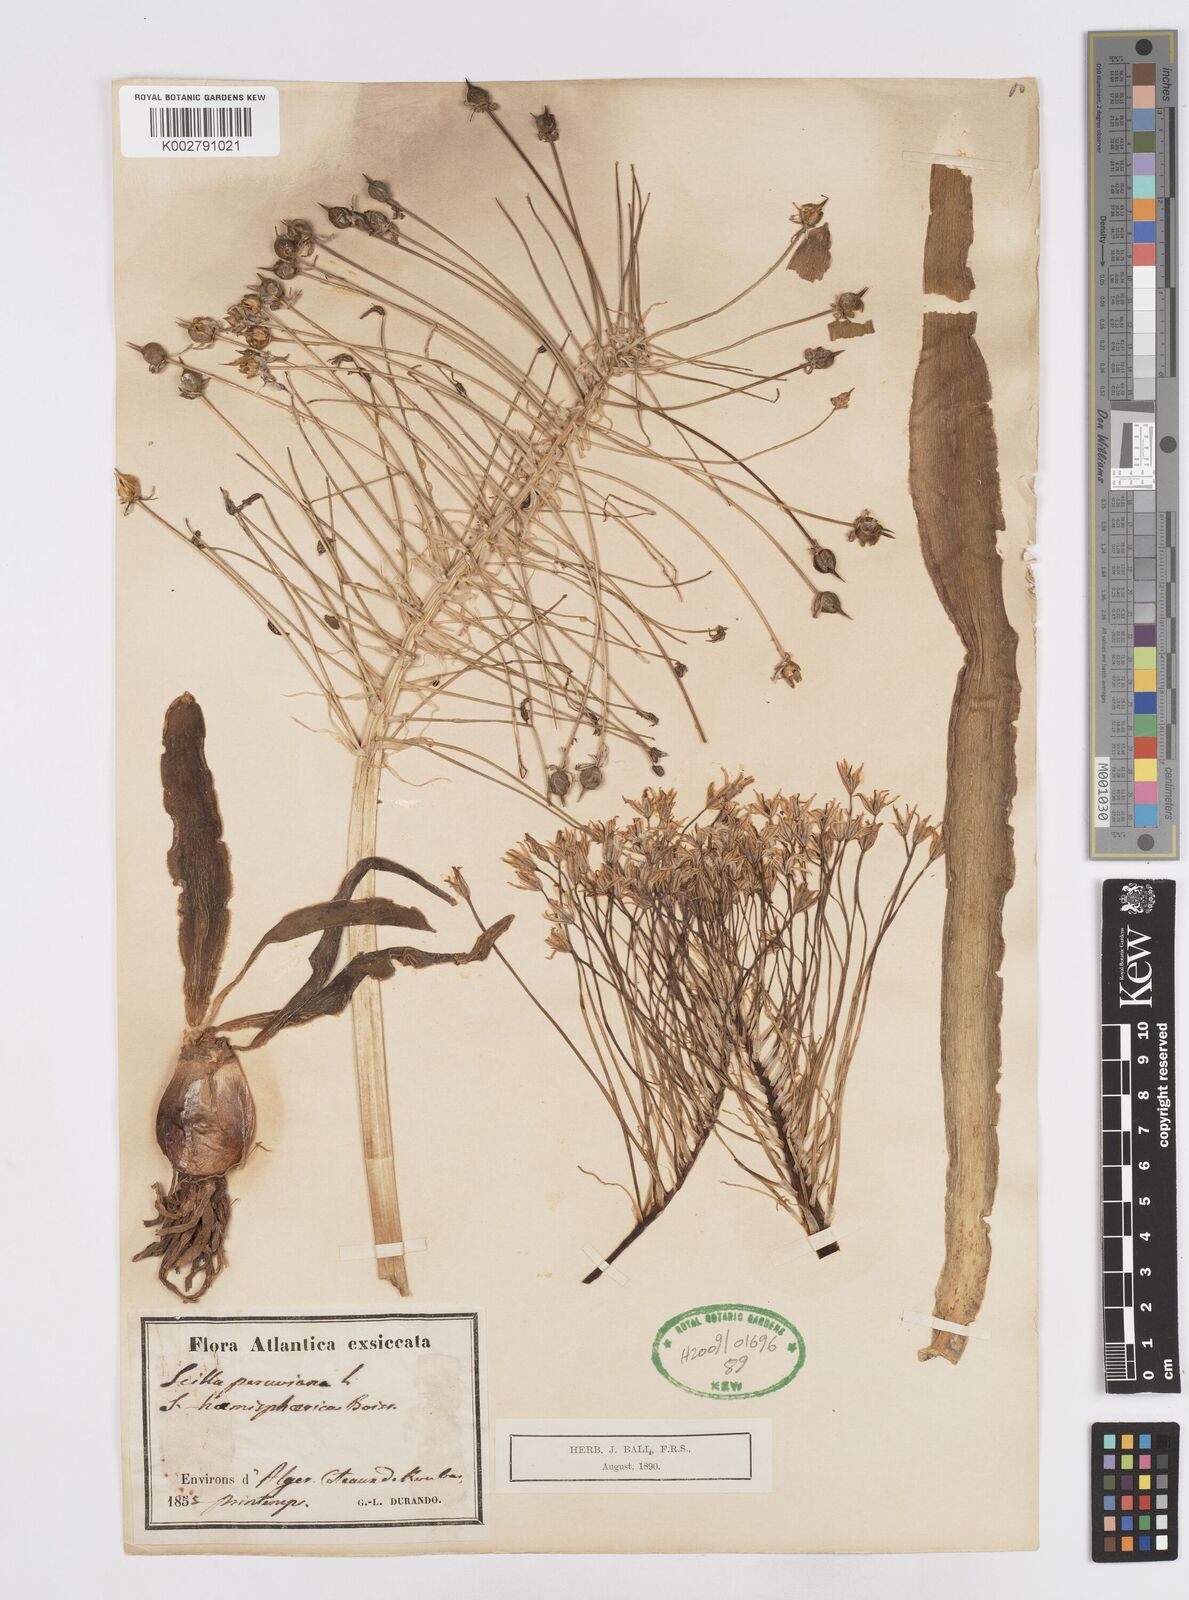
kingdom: Plantae
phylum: Tracheophyta
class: Liliopsida
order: Asparagales
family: Asparagaceae
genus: Scilla
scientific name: Scilla peruviana
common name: Portuguese squill
